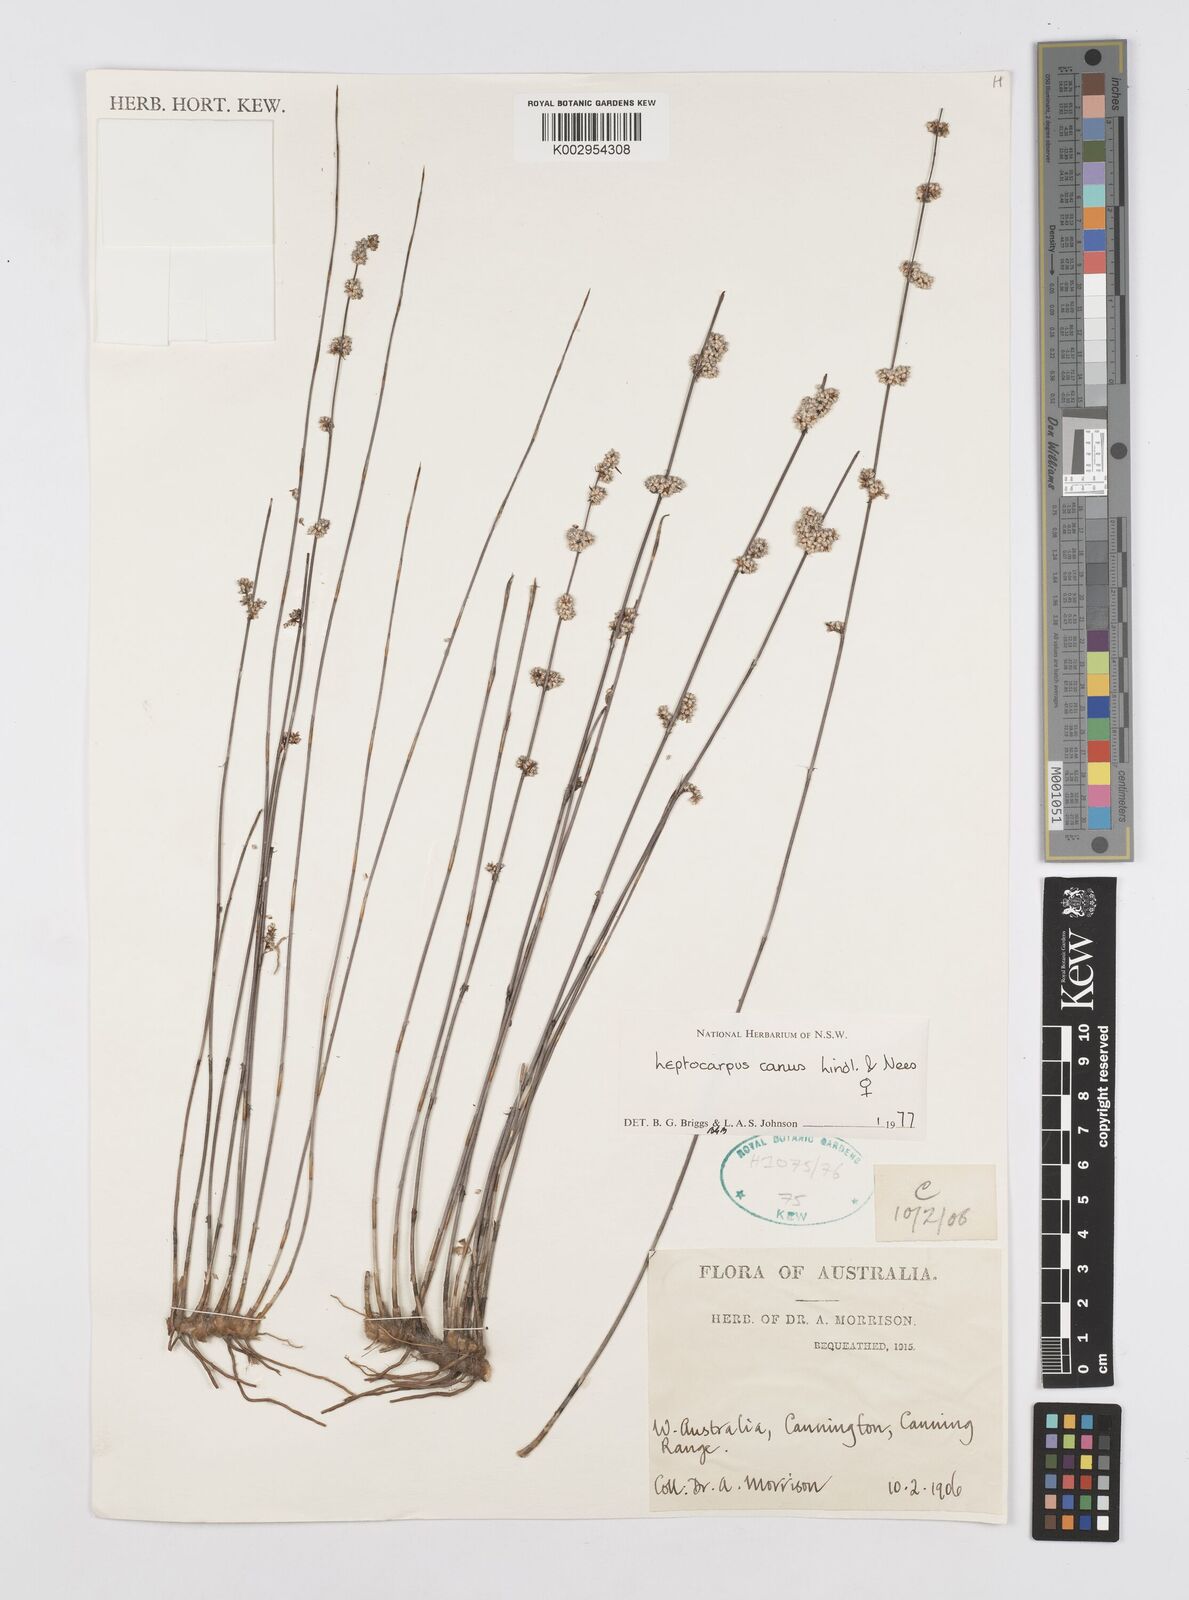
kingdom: Plantae
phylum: Tracheophyta
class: Liliopsida
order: Poales
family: Restionaceae
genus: Leptocarpus
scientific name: Leptocarpus canus
